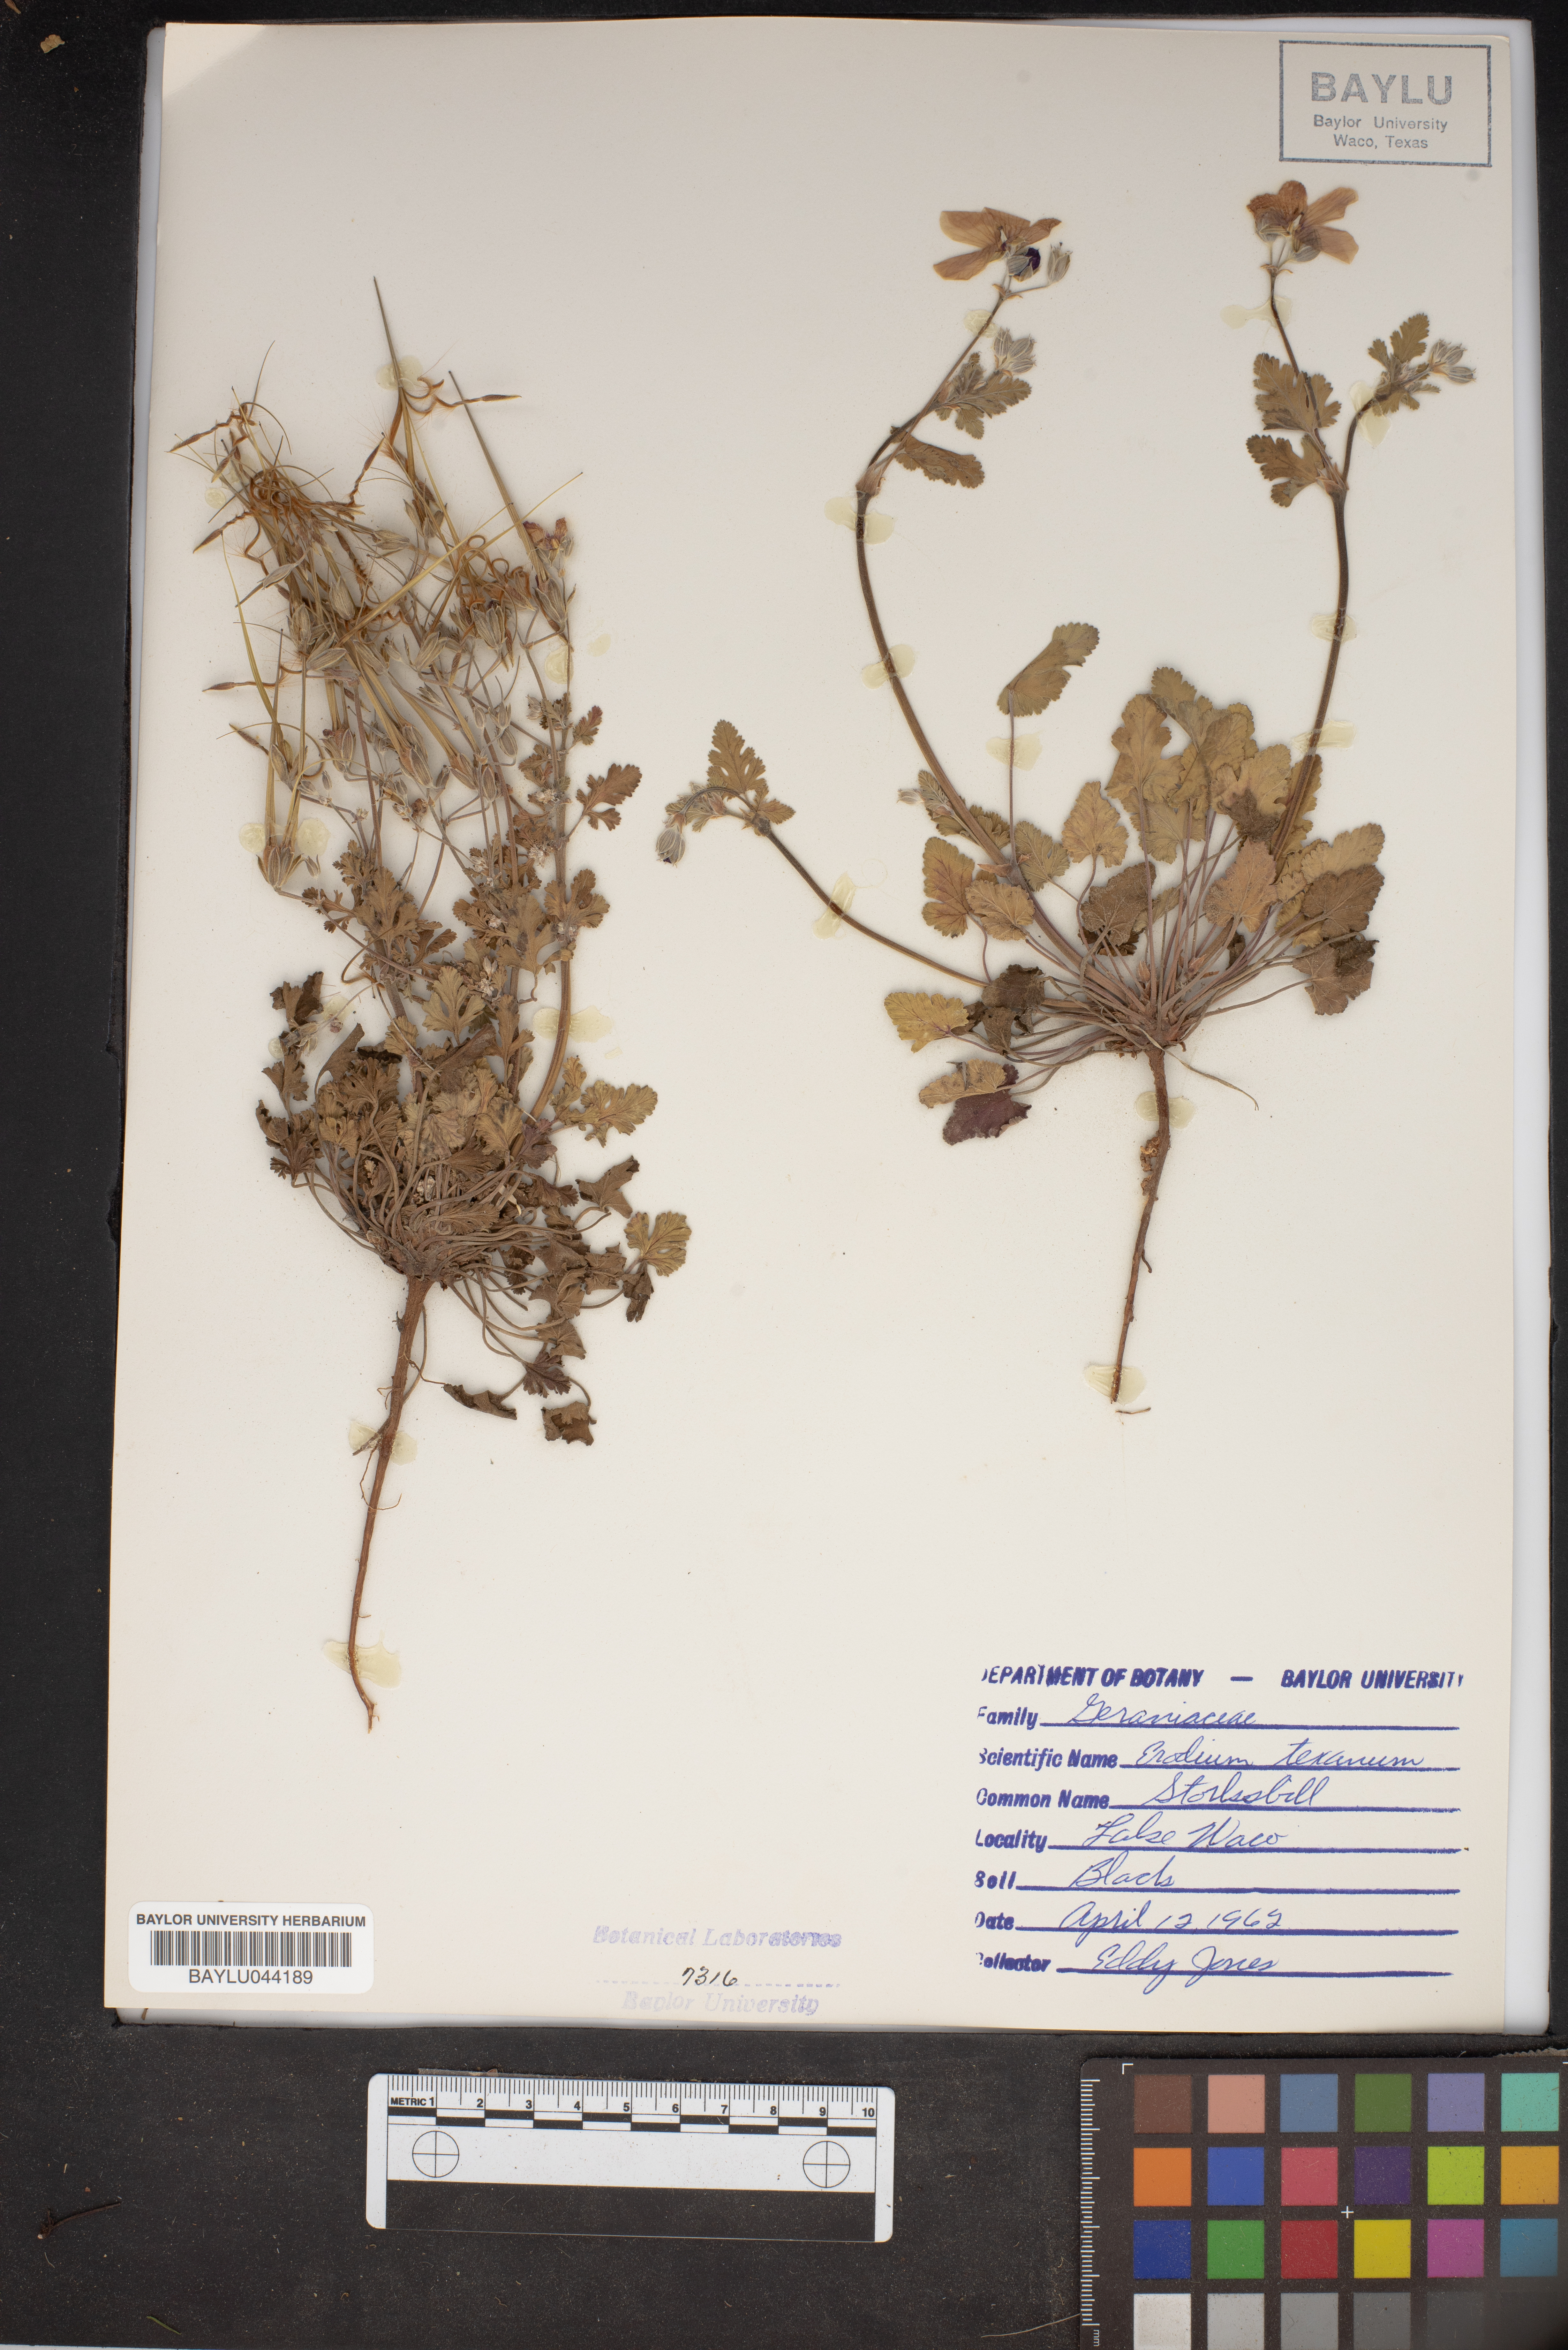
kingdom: Plantae
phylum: Tracheophyta
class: Magnoliopsida
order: Geraniales
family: Geraniaceae
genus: Erodium
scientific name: Erodium texanum
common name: Texas stork's-bill
